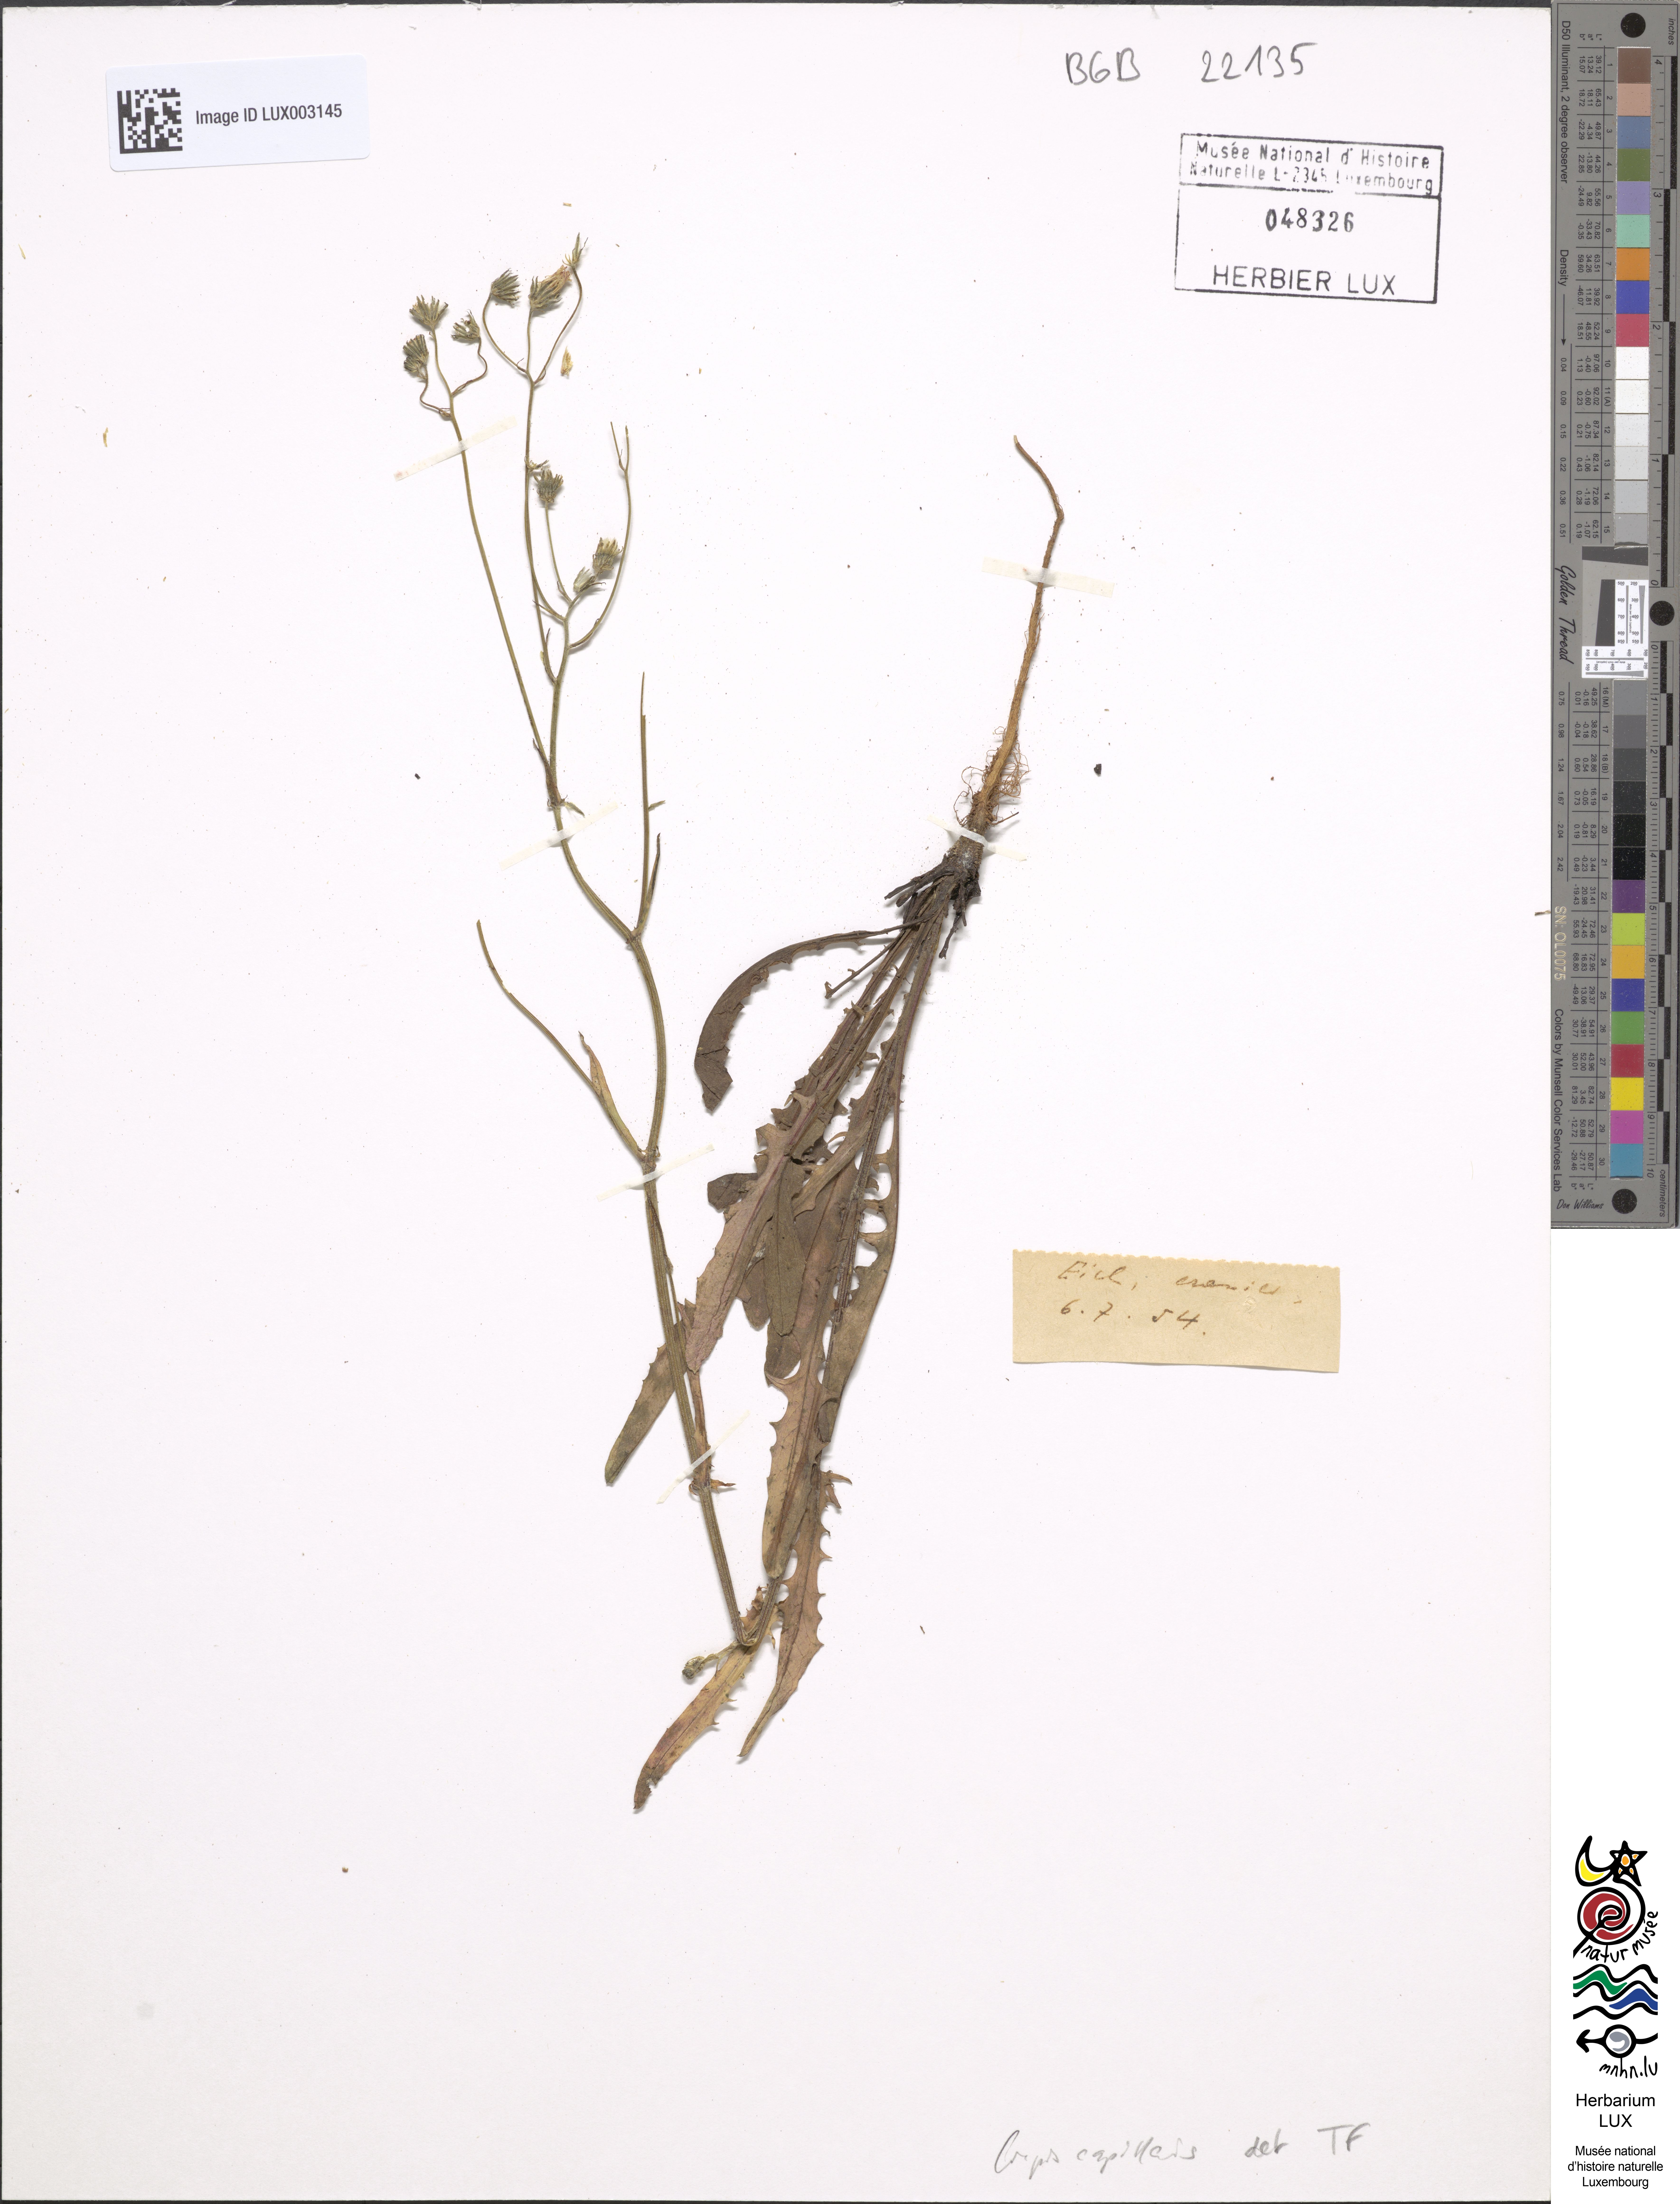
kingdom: Plantae
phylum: Tracheophyta
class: Magnoliopsida
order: Asterales
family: Asteraceae
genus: Crepis
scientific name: Crepis capillaris
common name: Smooth hawksbeard
